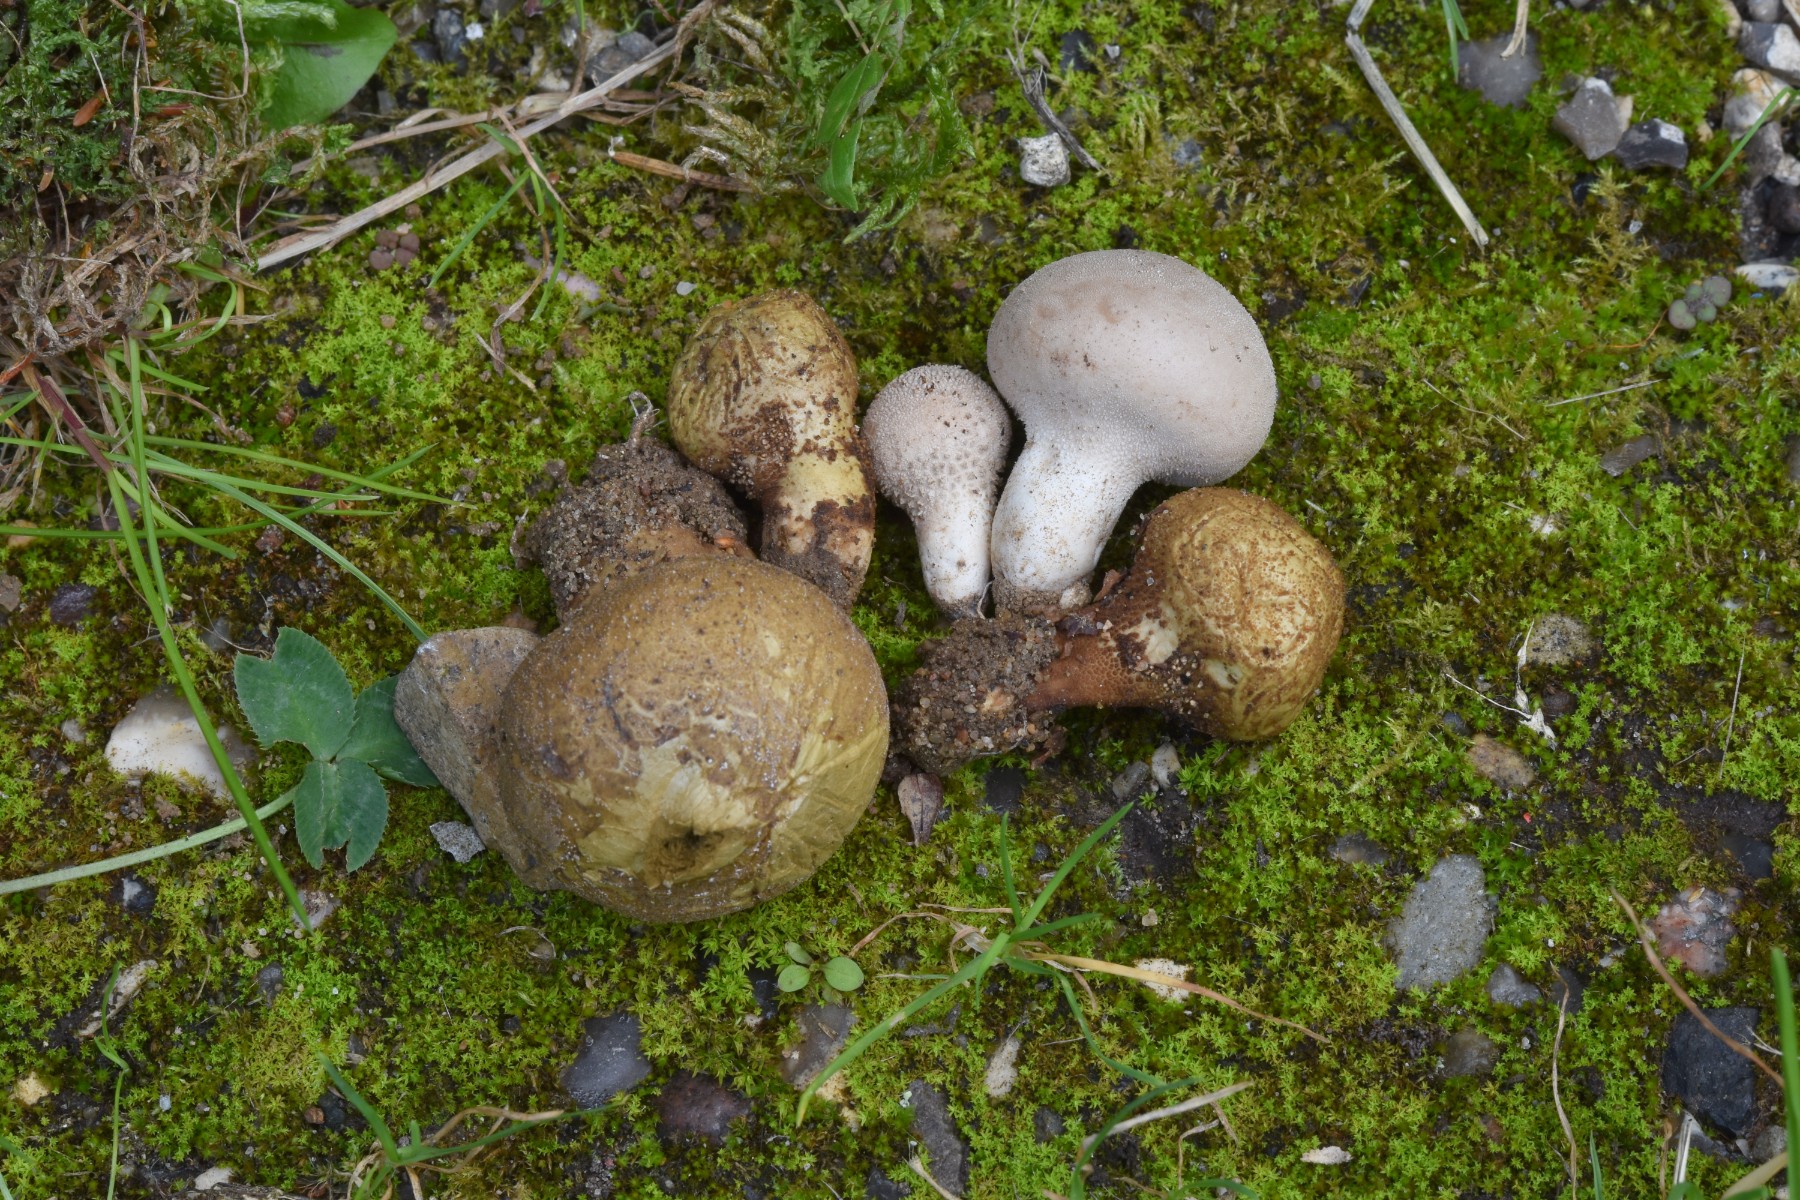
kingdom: Fungi
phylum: Basidiomycota
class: Agaricomycetes
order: Agaricales
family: Lycoperdaceae
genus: Lycoperdon
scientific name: Lycoperdon molle
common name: skov-støvbold
